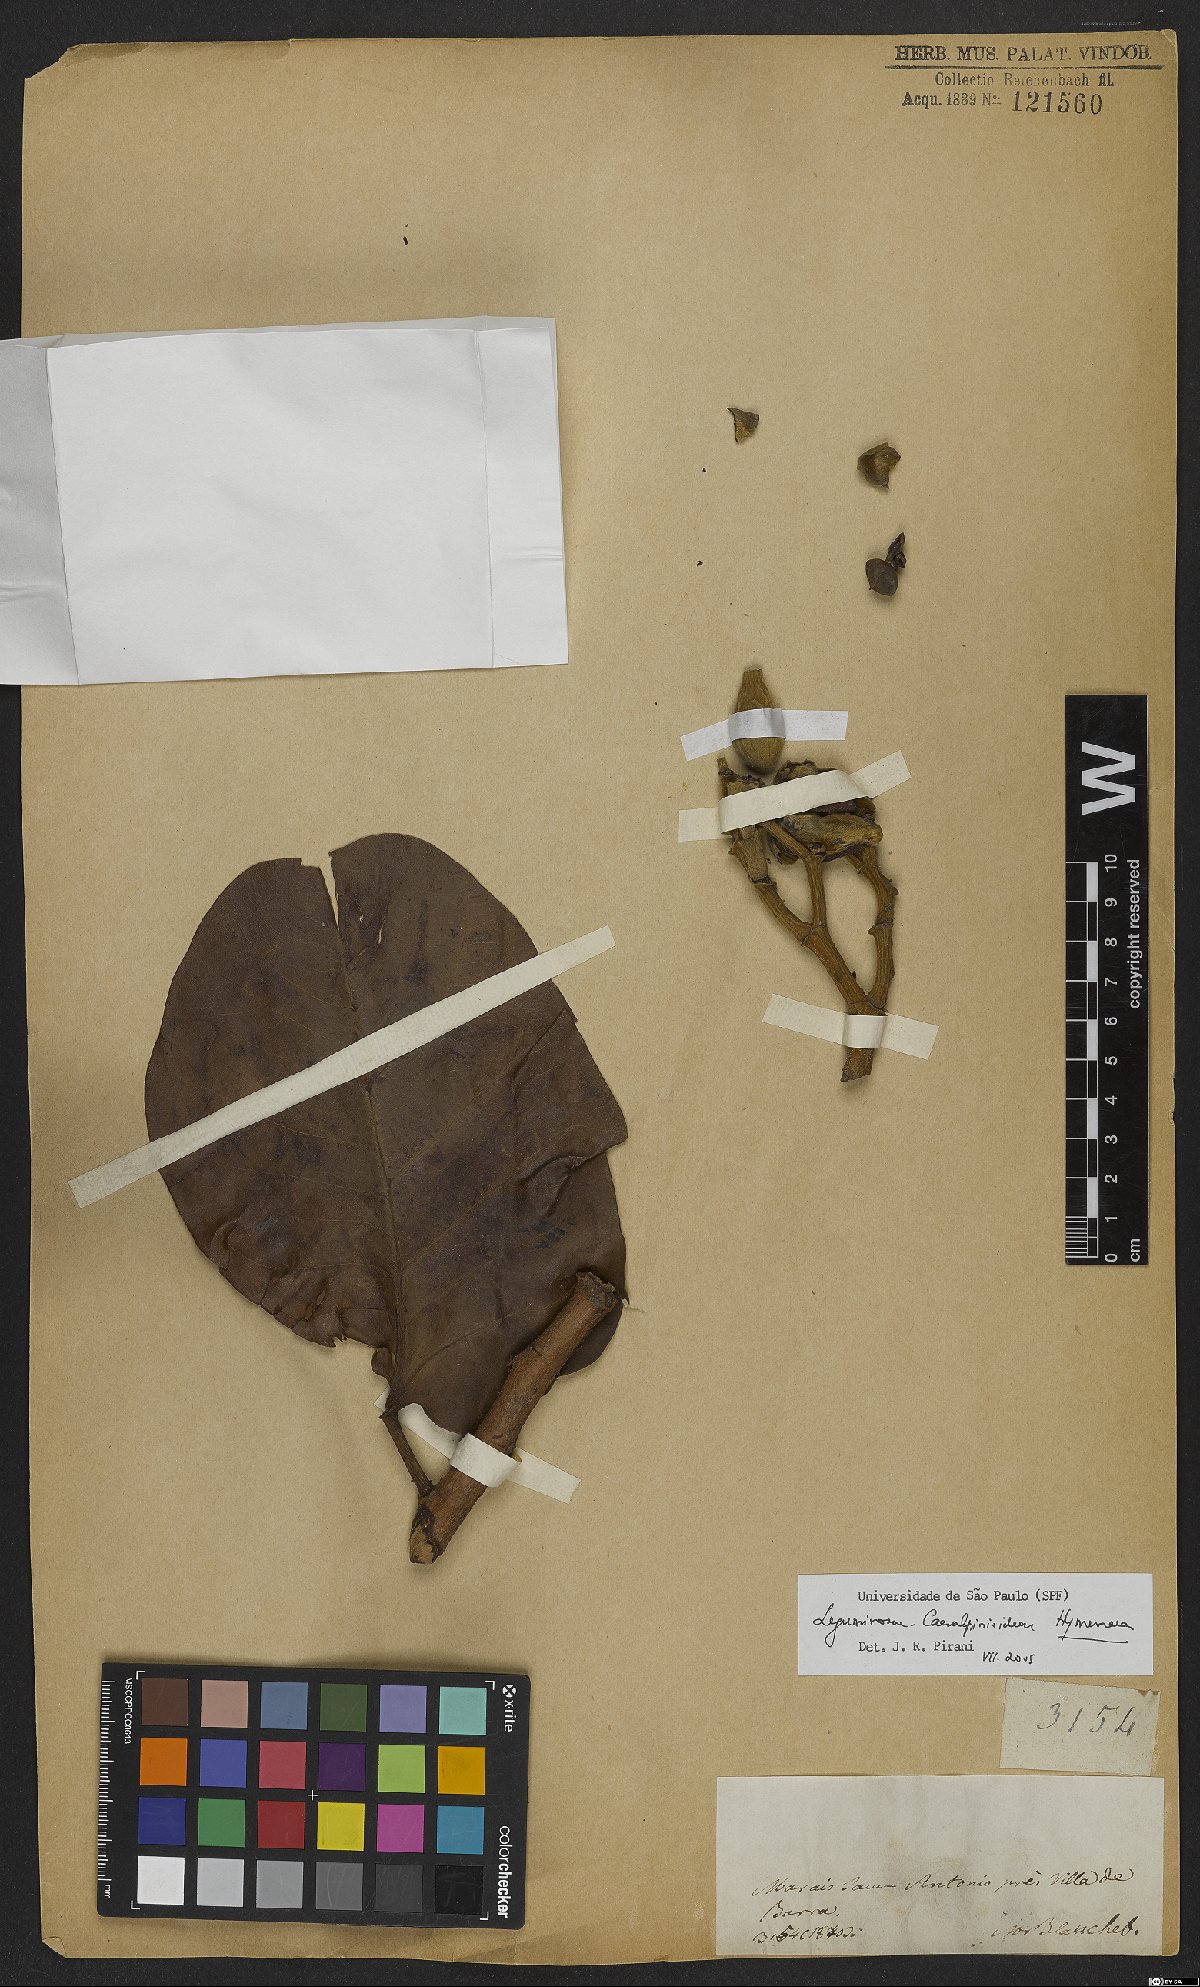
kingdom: Plantae
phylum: Tracheophyta
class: Magnoliopsida
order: Fabales
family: Fabaceae
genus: Hymenaea
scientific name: Hymenaea
